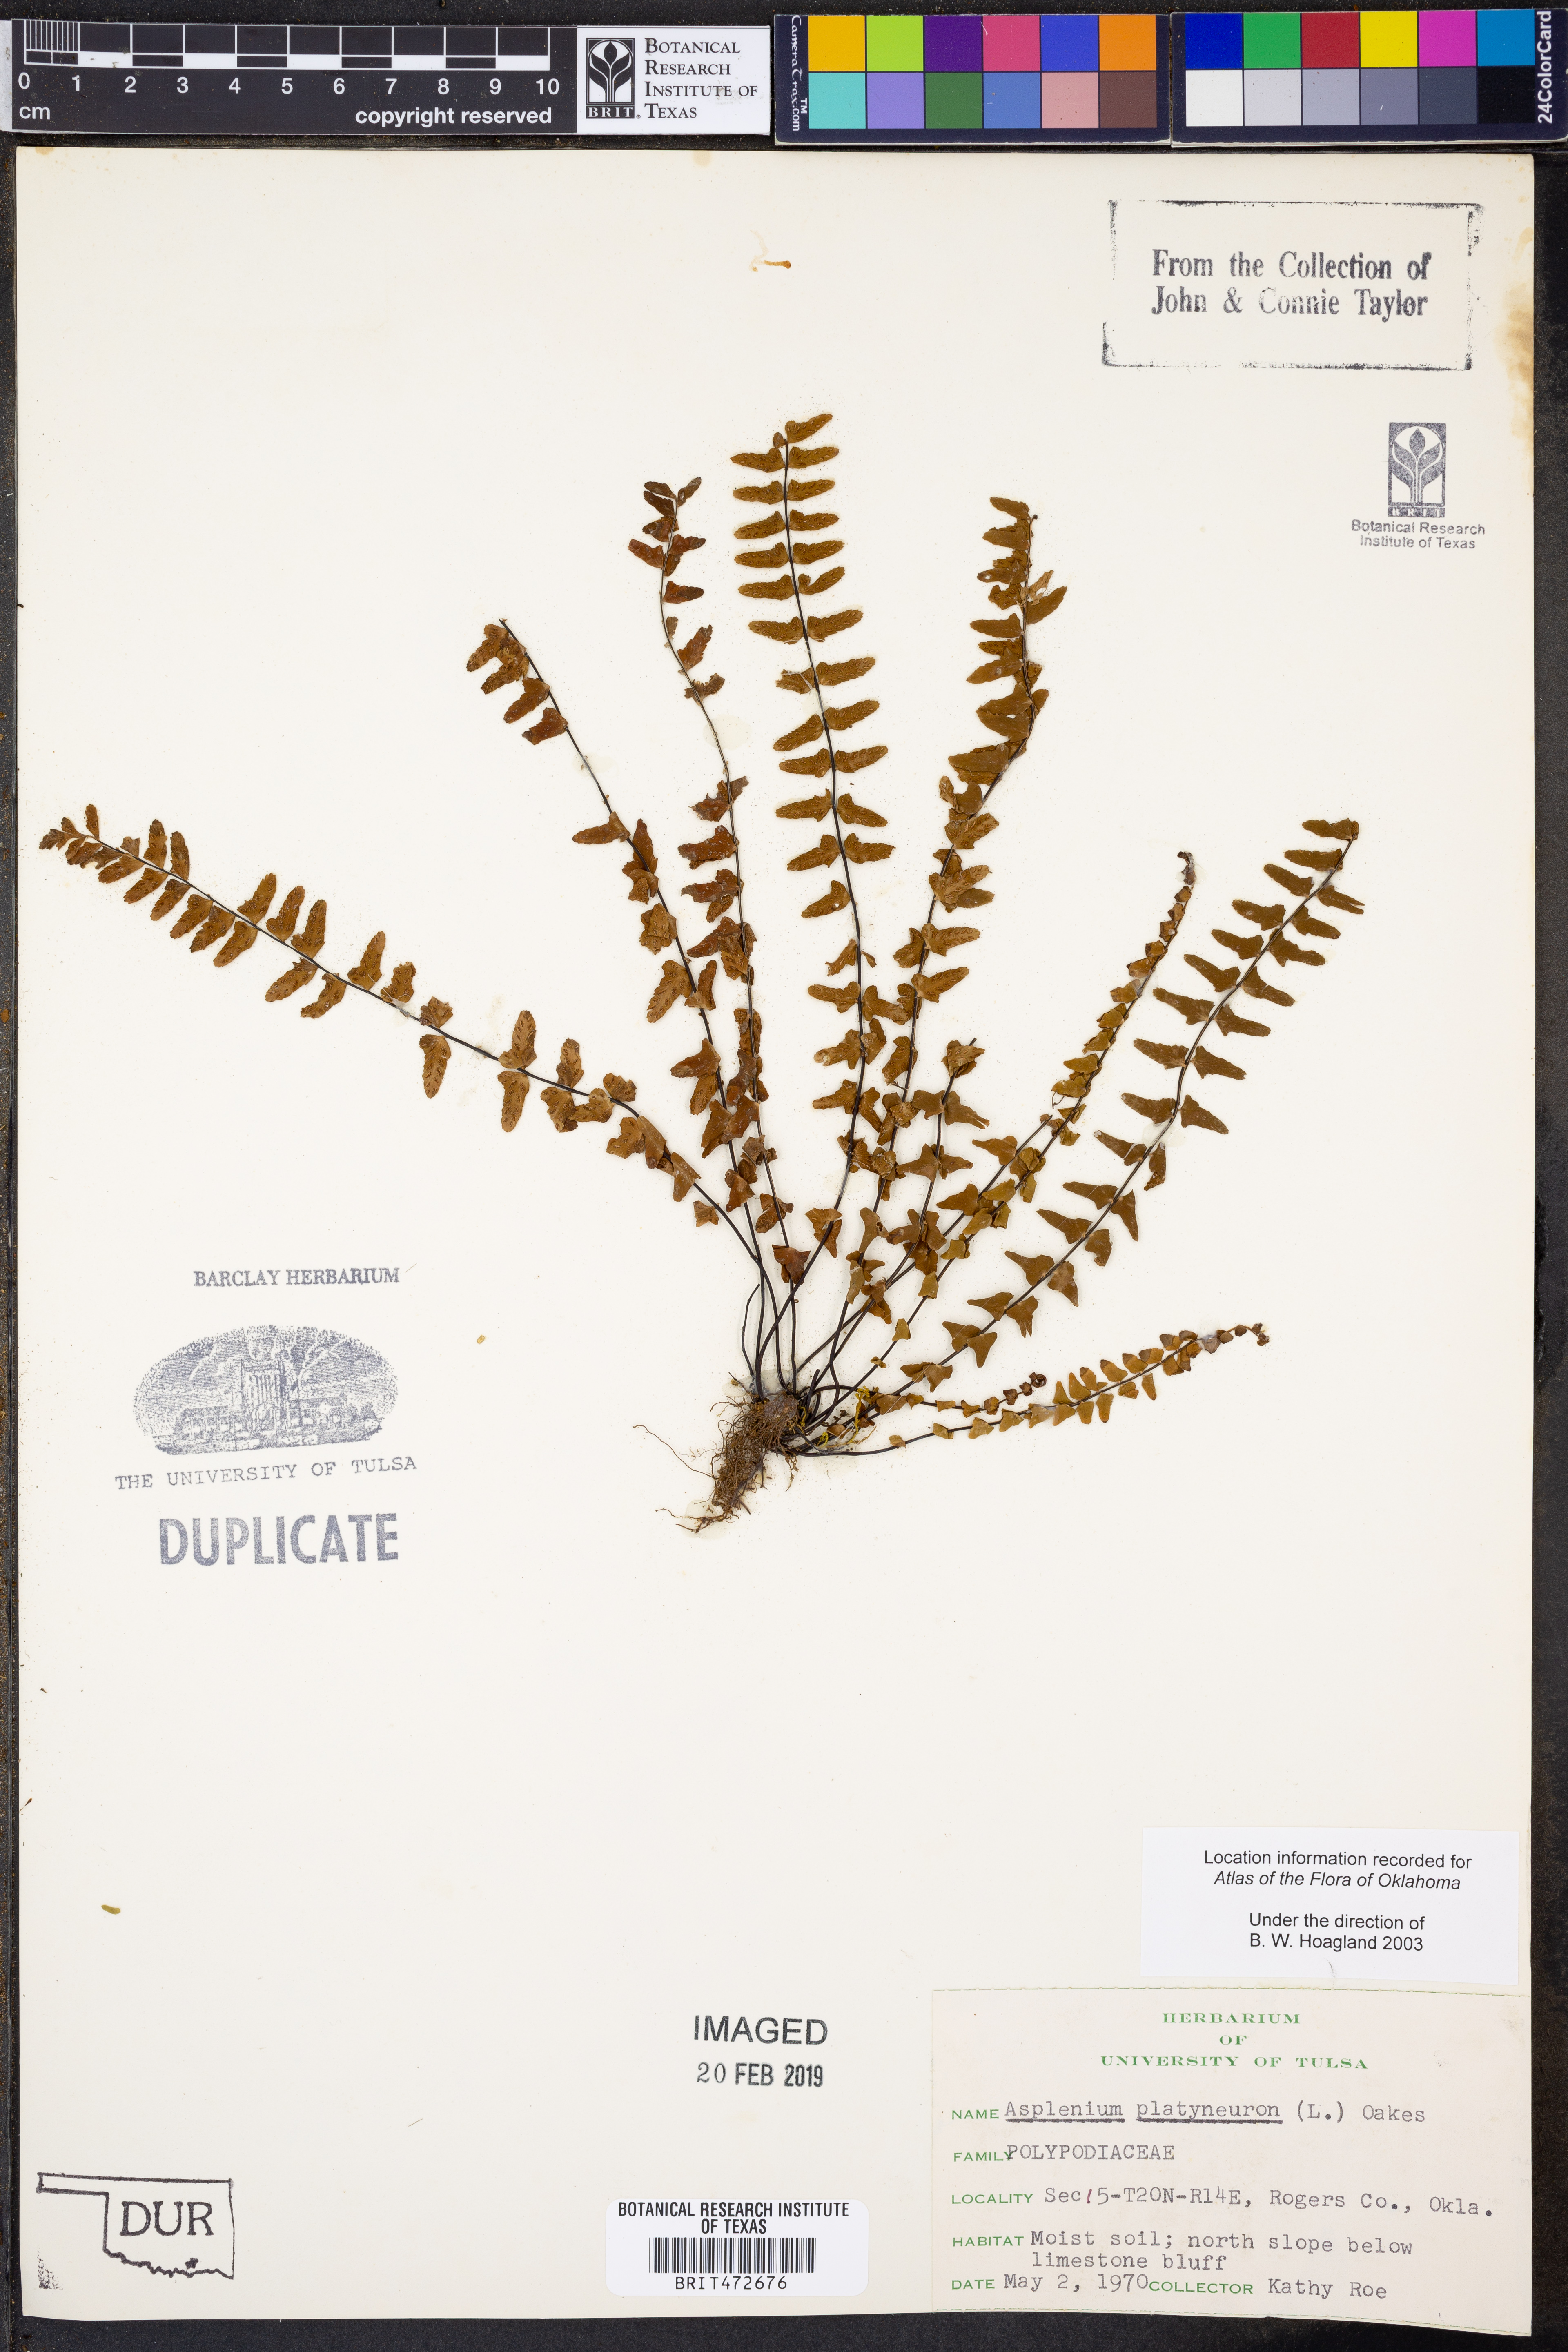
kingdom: Plantae
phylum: Tracheophyta
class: Polypodiopsida
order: Polypodiales
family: Aspleniaceae
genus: Asplenium
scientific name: Asplenium platyneuron
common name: Ebony spleenwort
